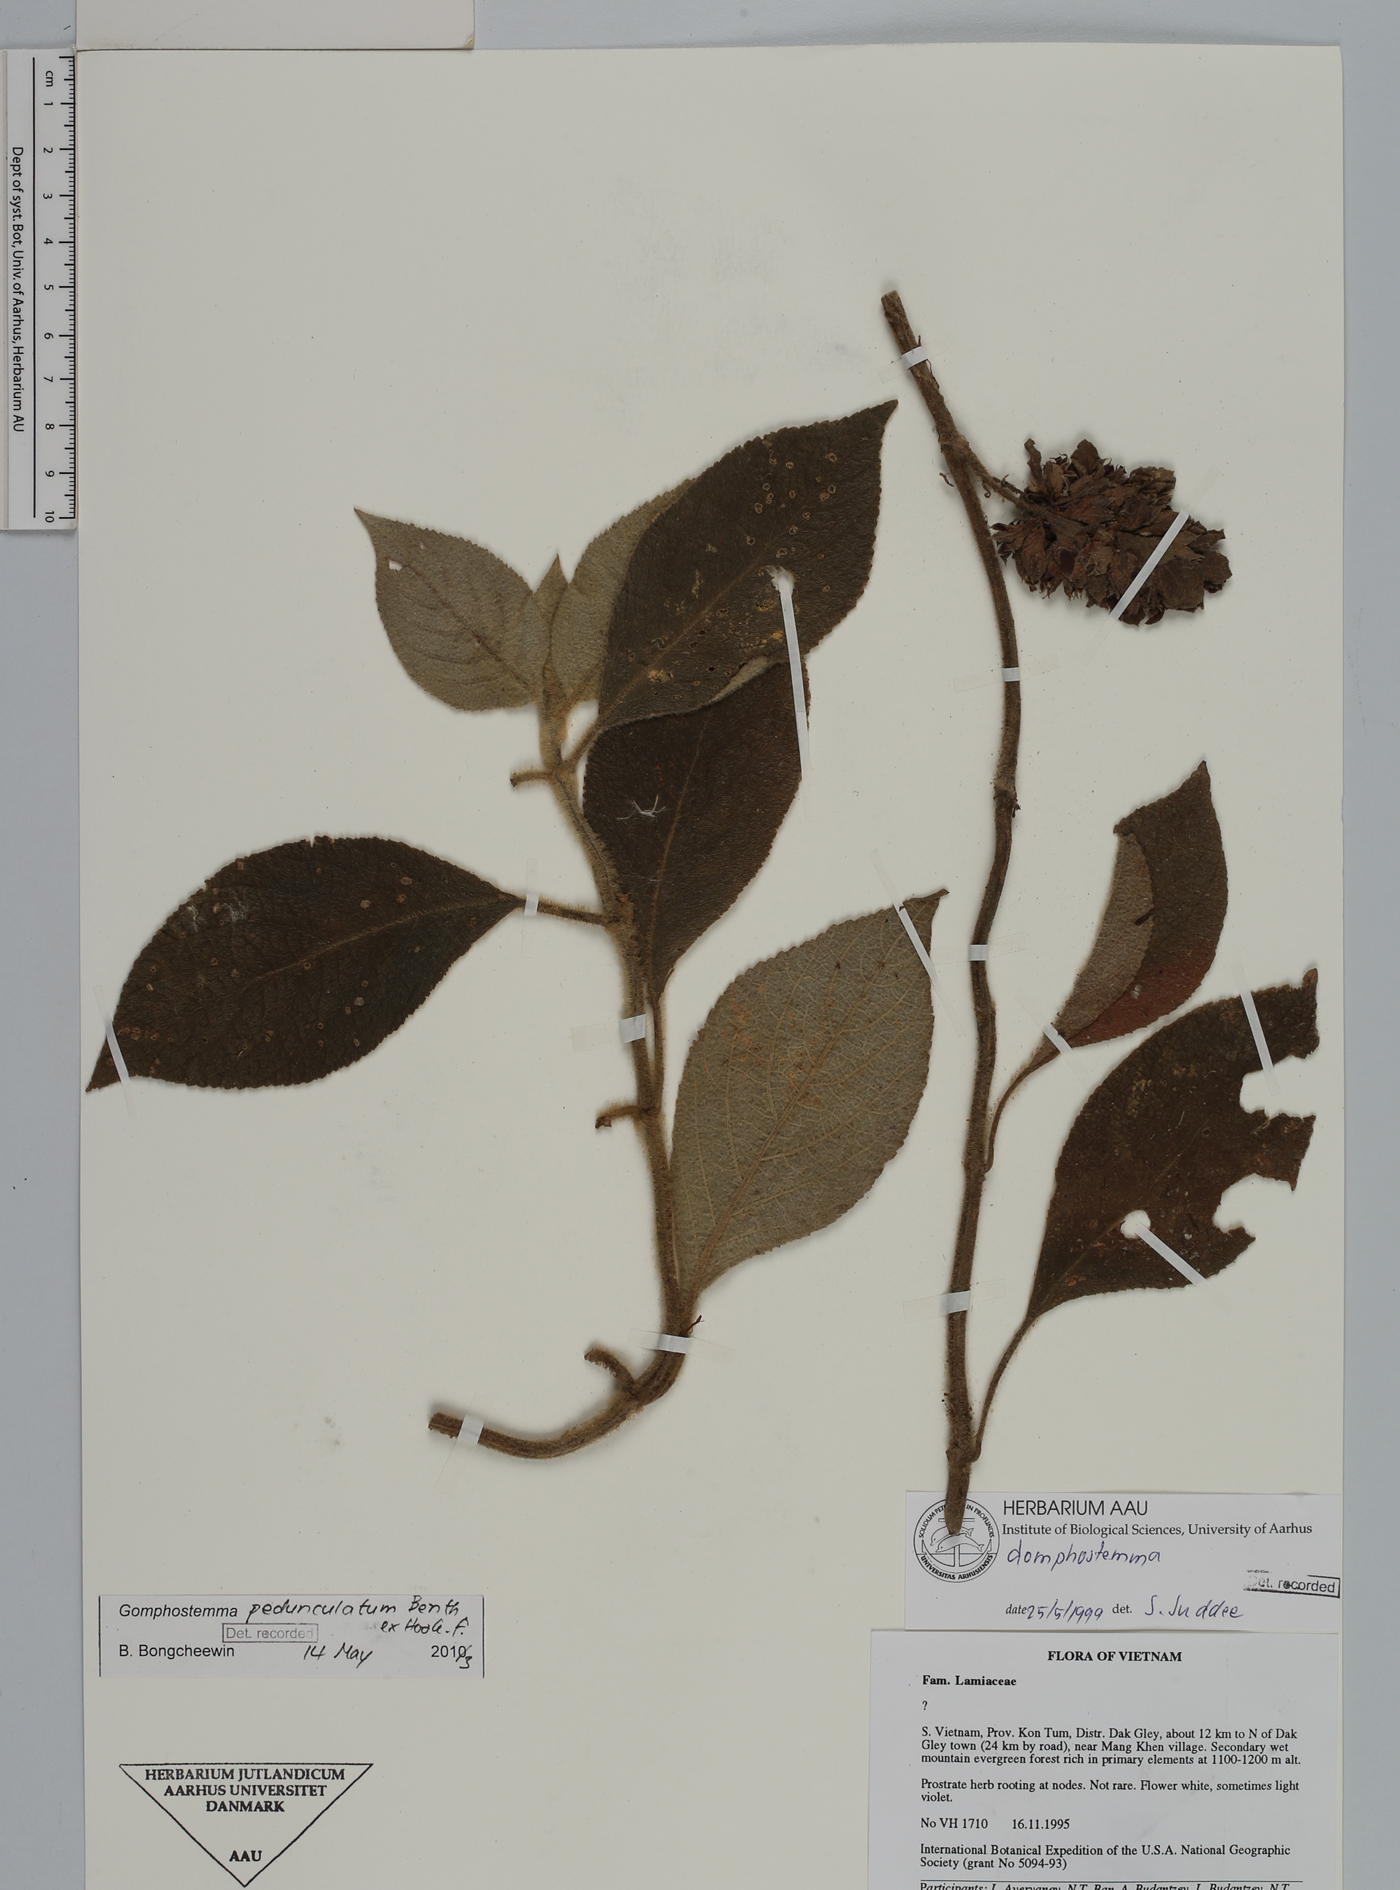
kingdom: Plantae
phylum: Tracheophyta
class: Magnoliopsida
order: Lamiales
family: Lamiaceae
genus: Gomphostemma
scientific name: Gomphostemma pedunculatum
